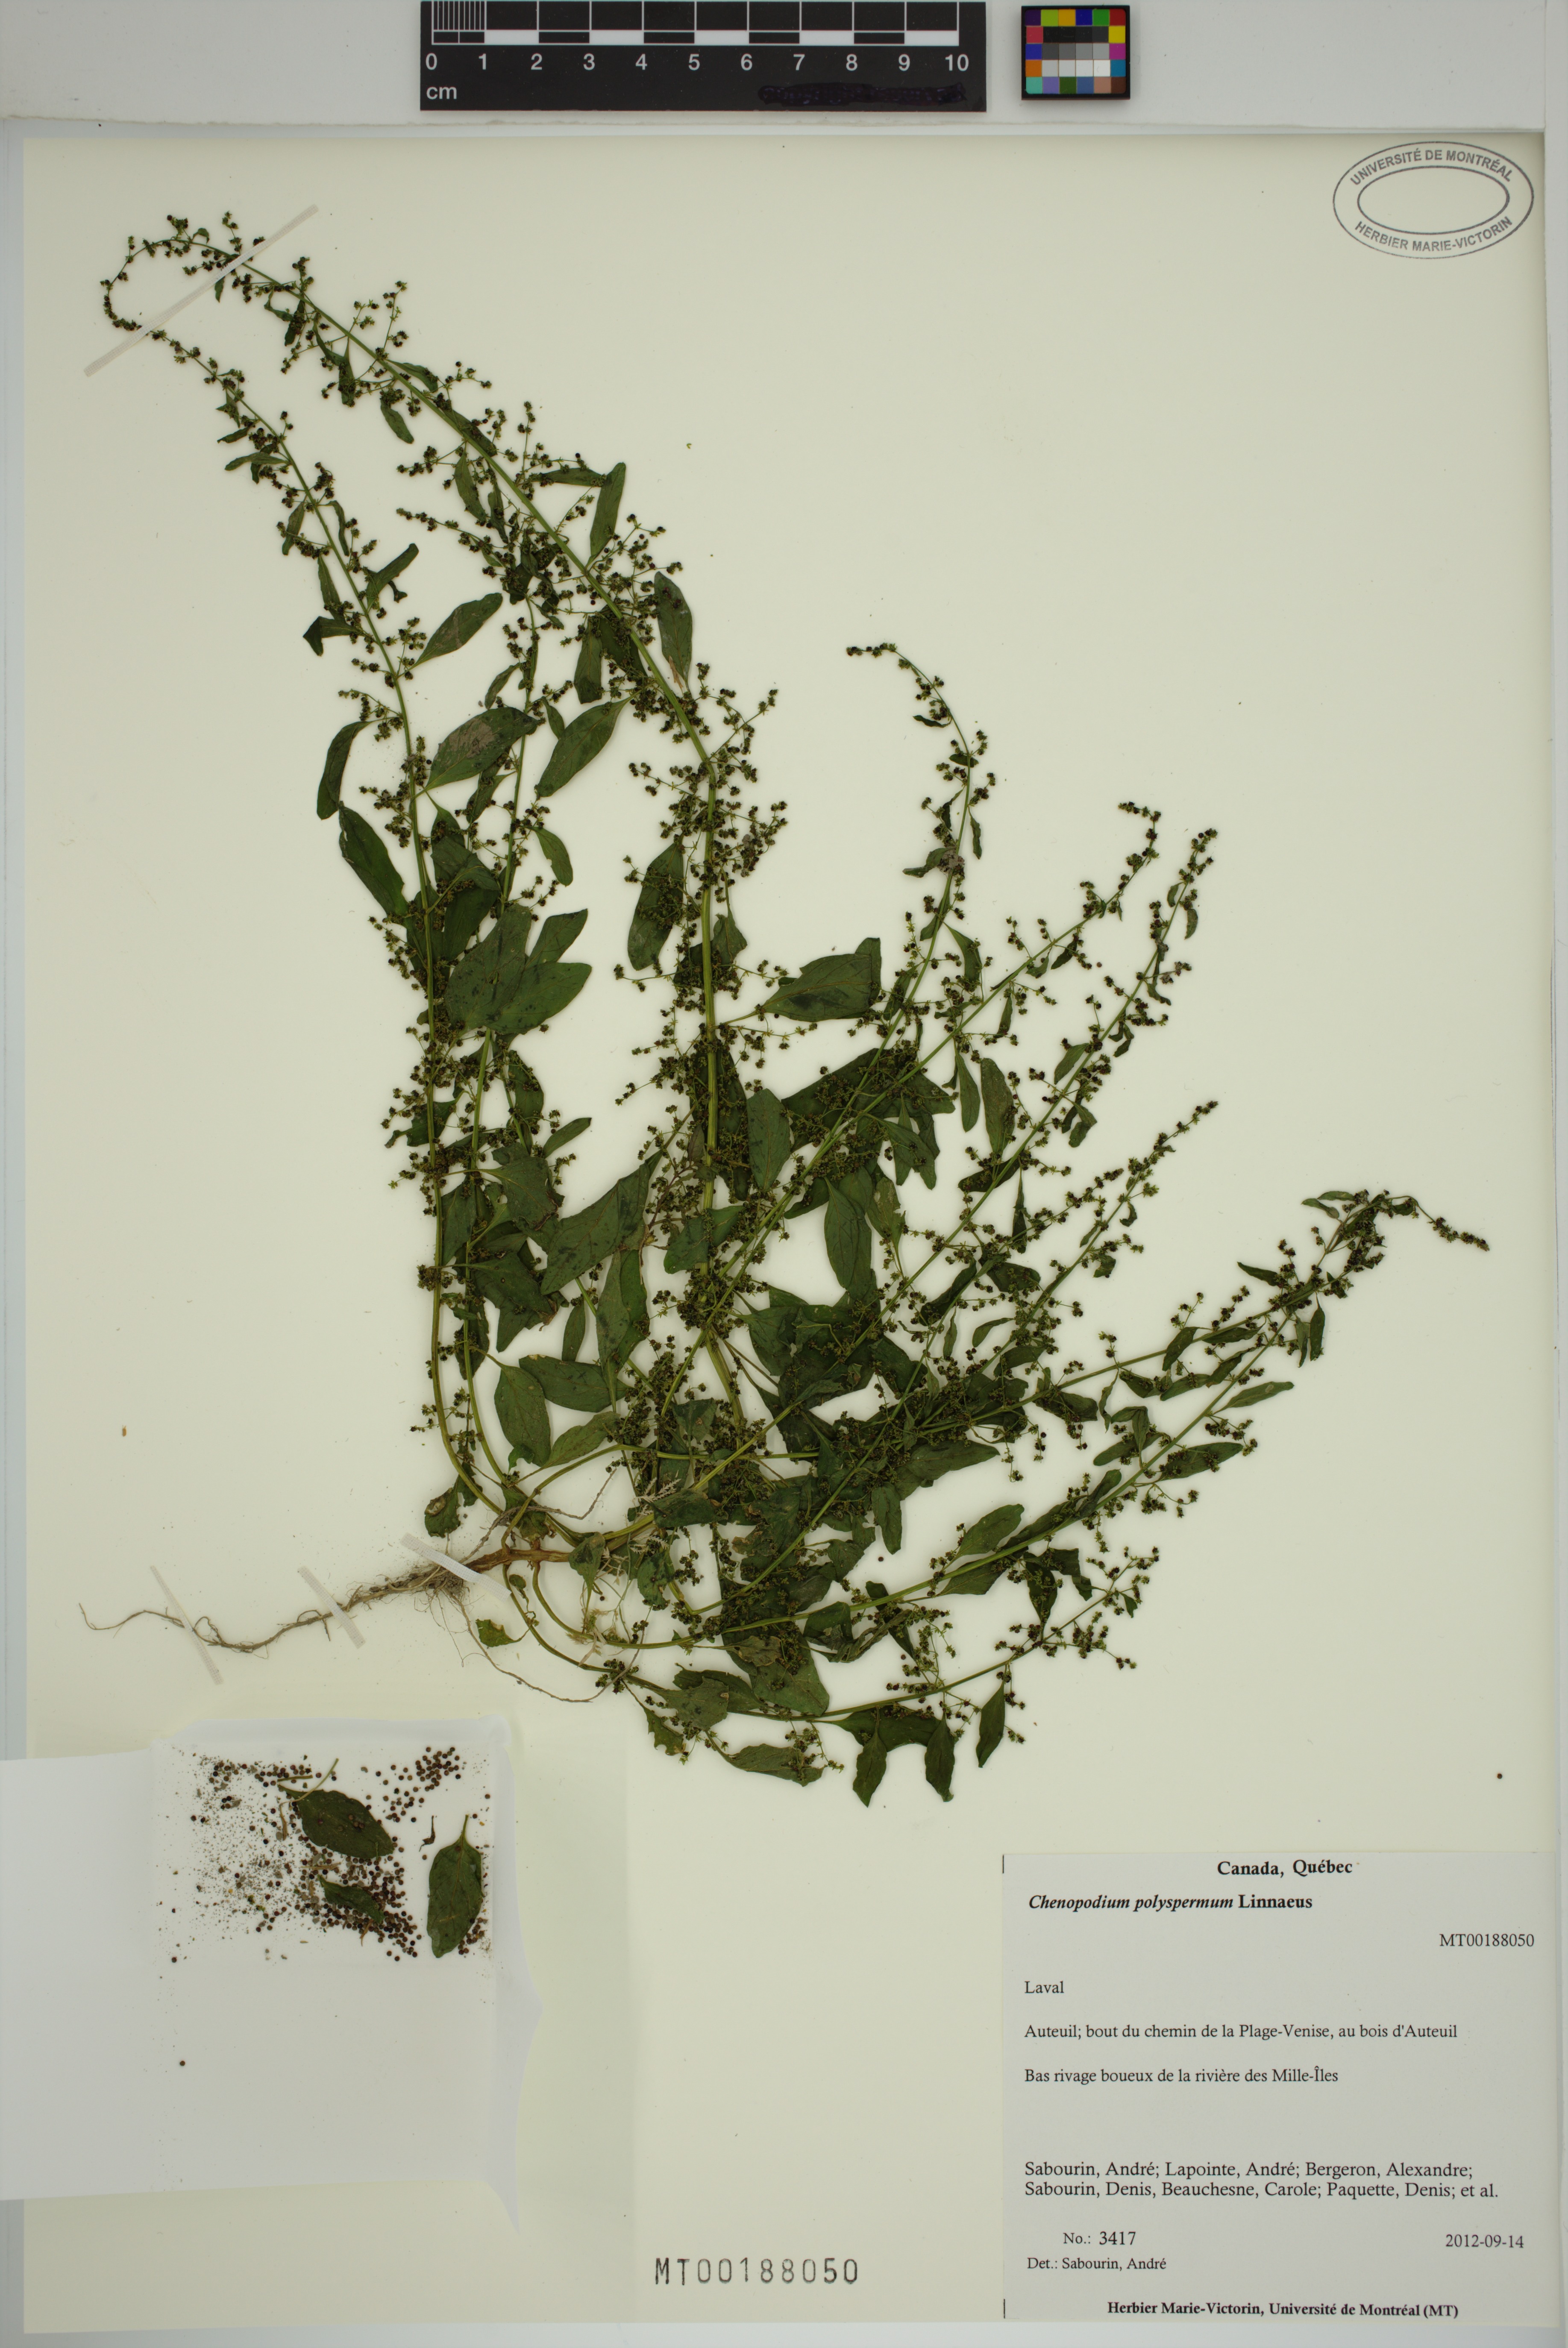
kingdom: Plantae
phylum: Tracheophyta
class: Magnoliopsida
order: Caryophyllales
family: Amaranthaceae
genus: Lipandra
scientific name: Lipandra polysperma
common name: Many-seed goosefoot
